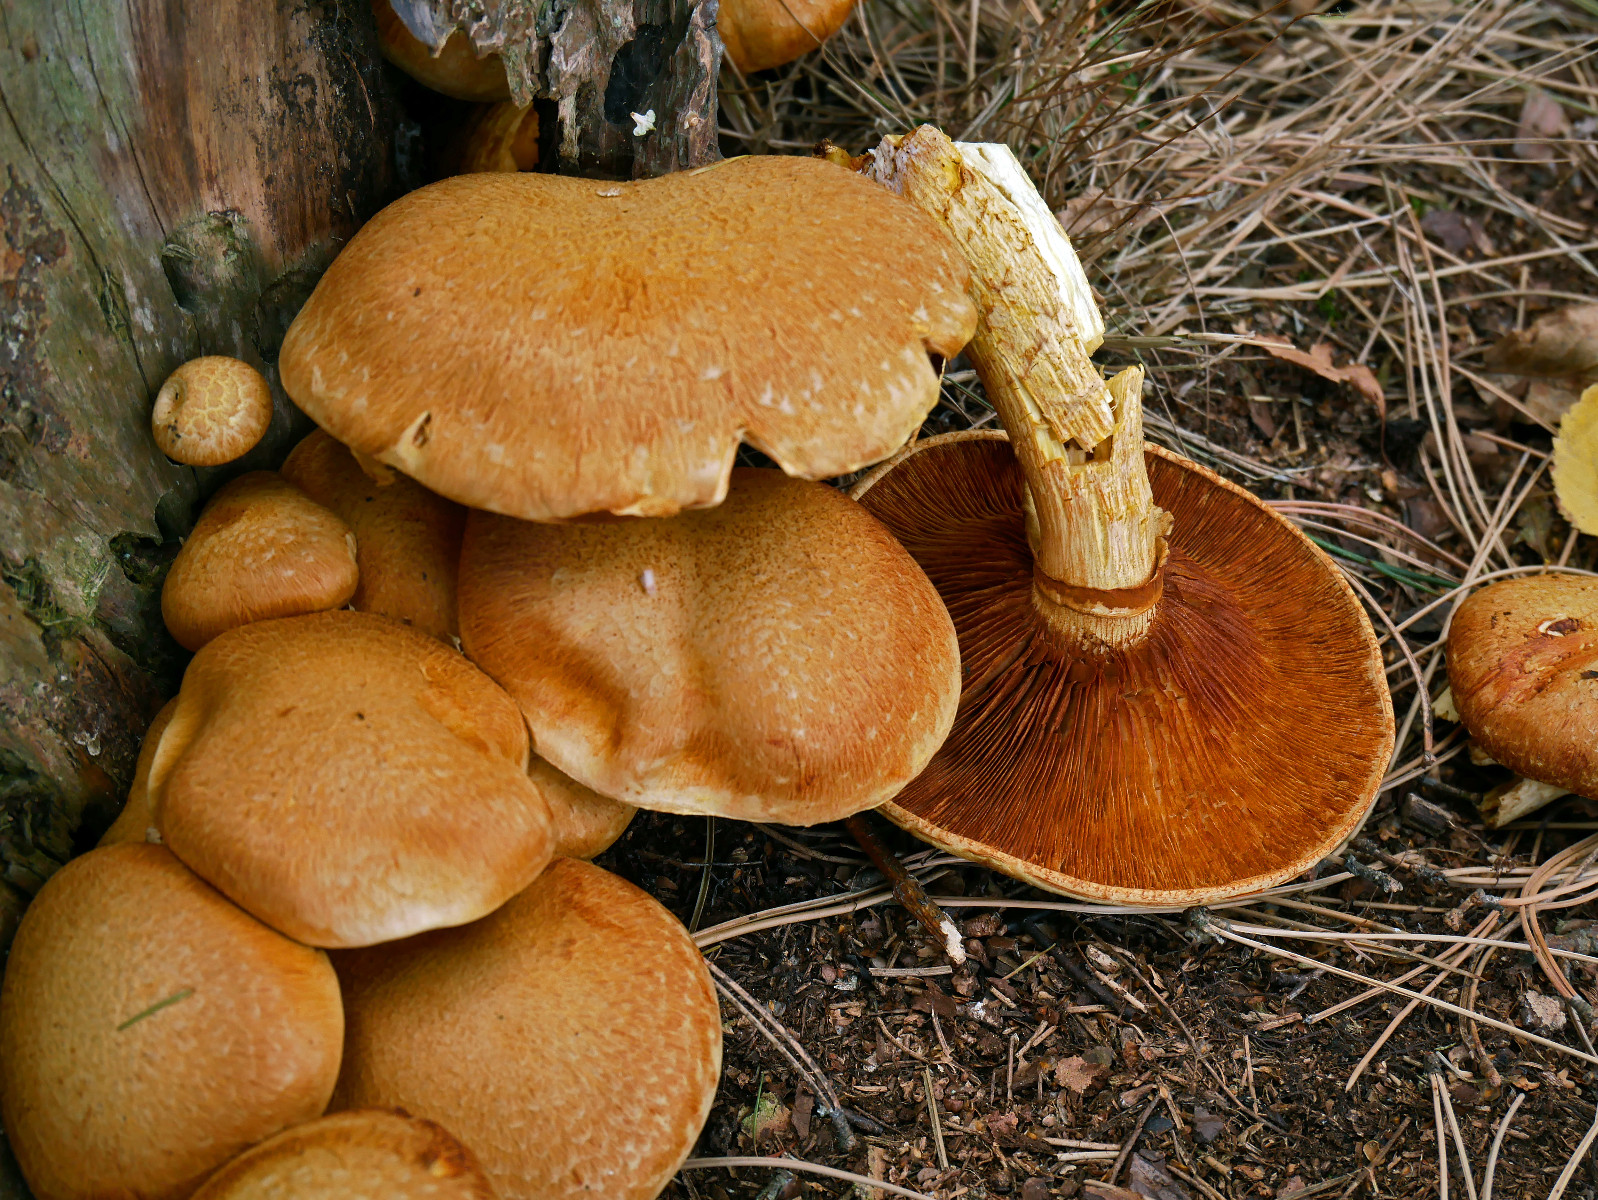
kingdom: Fungi
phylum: Basidiomycota
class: Agaricomycetes
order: Agaricales
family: Hymenogastraceae
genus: Gymnopilus
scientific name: Gymnopilus spectabilis
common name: fibret flammehat
